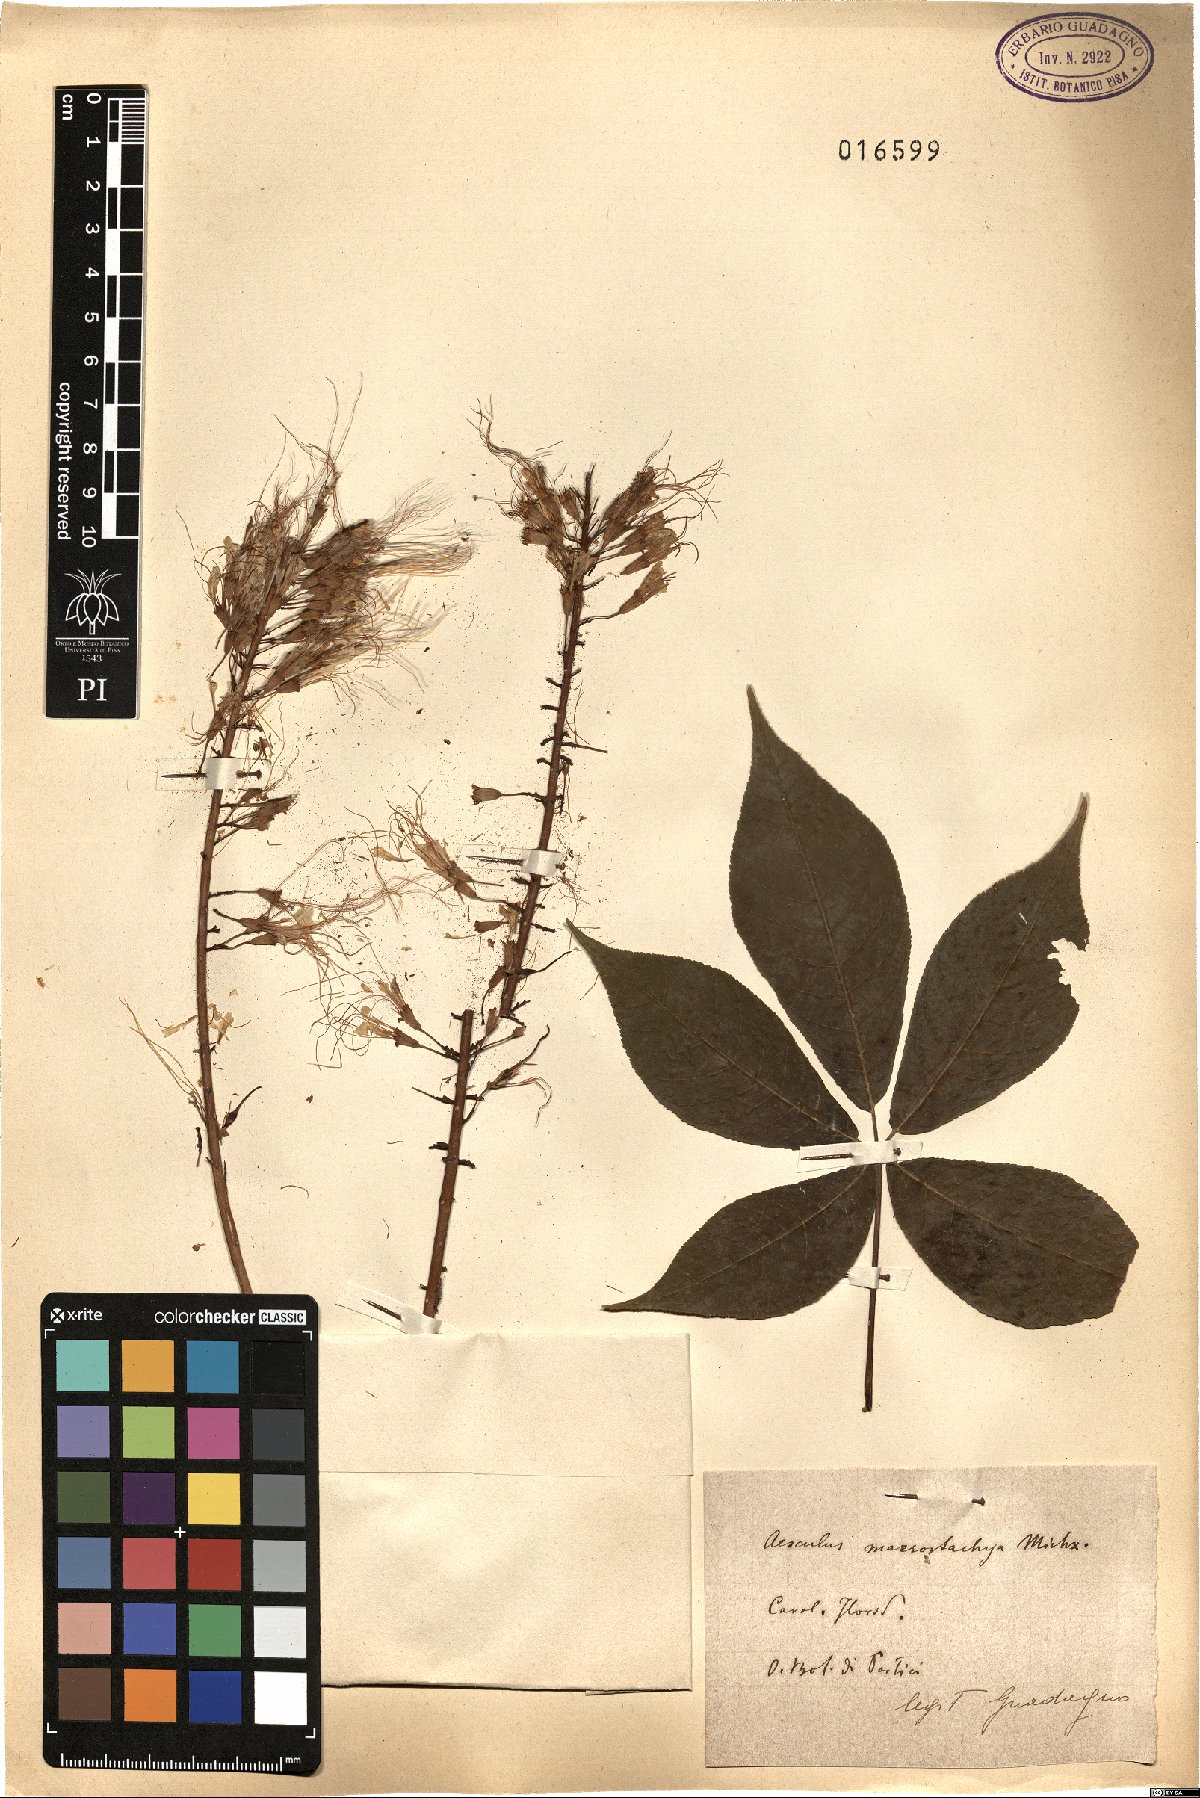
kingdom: Plantae
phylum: Tracheophyta
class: Magnoliopsida
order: Sapindales
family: Sapindaceae
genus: Aesculus
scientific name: Aesculus parviflora
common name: Bottlebrush buckeye
